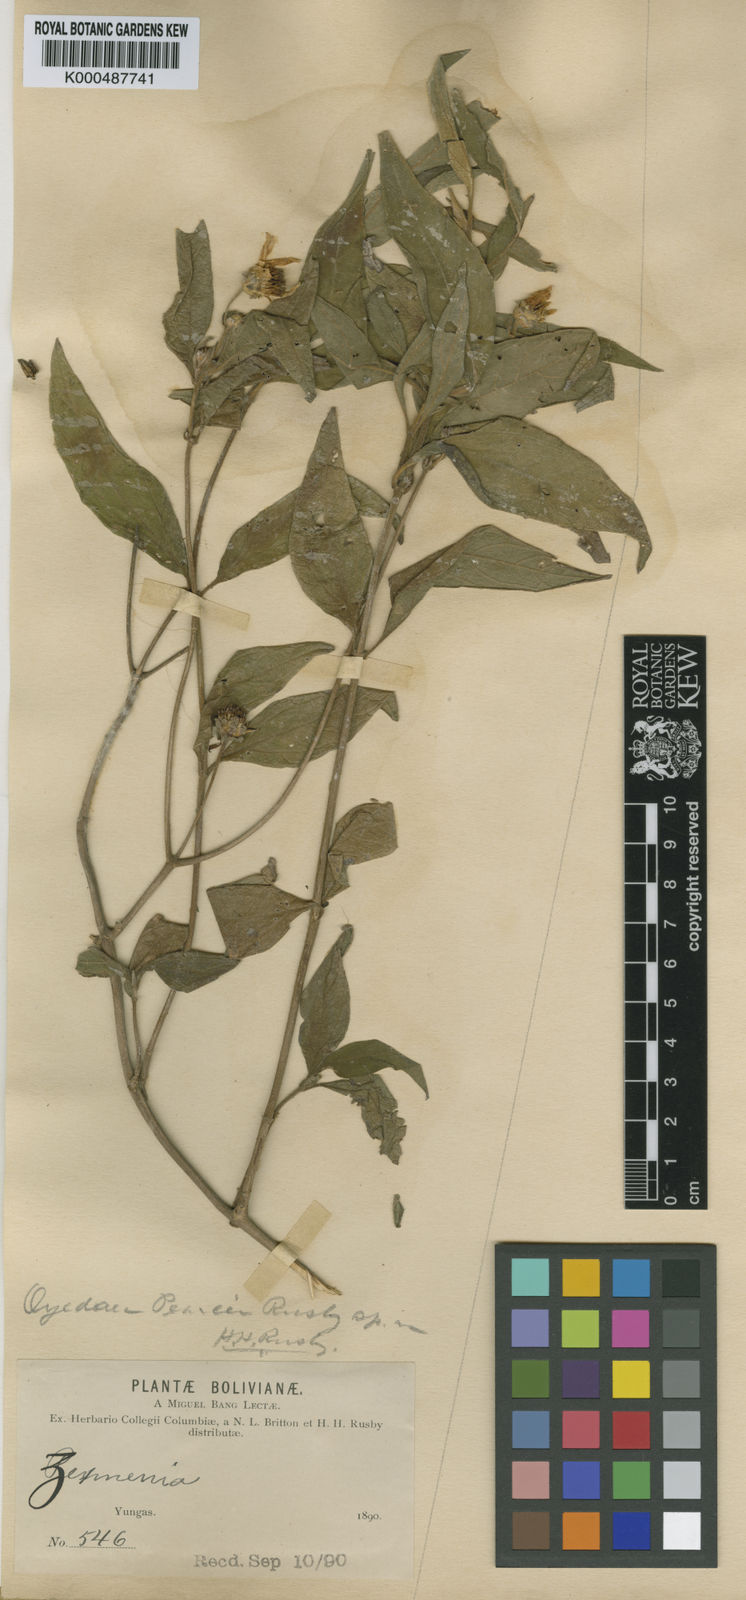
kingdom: Plantae
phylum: Tracheophyta
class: Magnoliopsida
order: Asterales
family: Asteraceae
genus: Oyedaea
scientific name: Oyedaea boliviana
